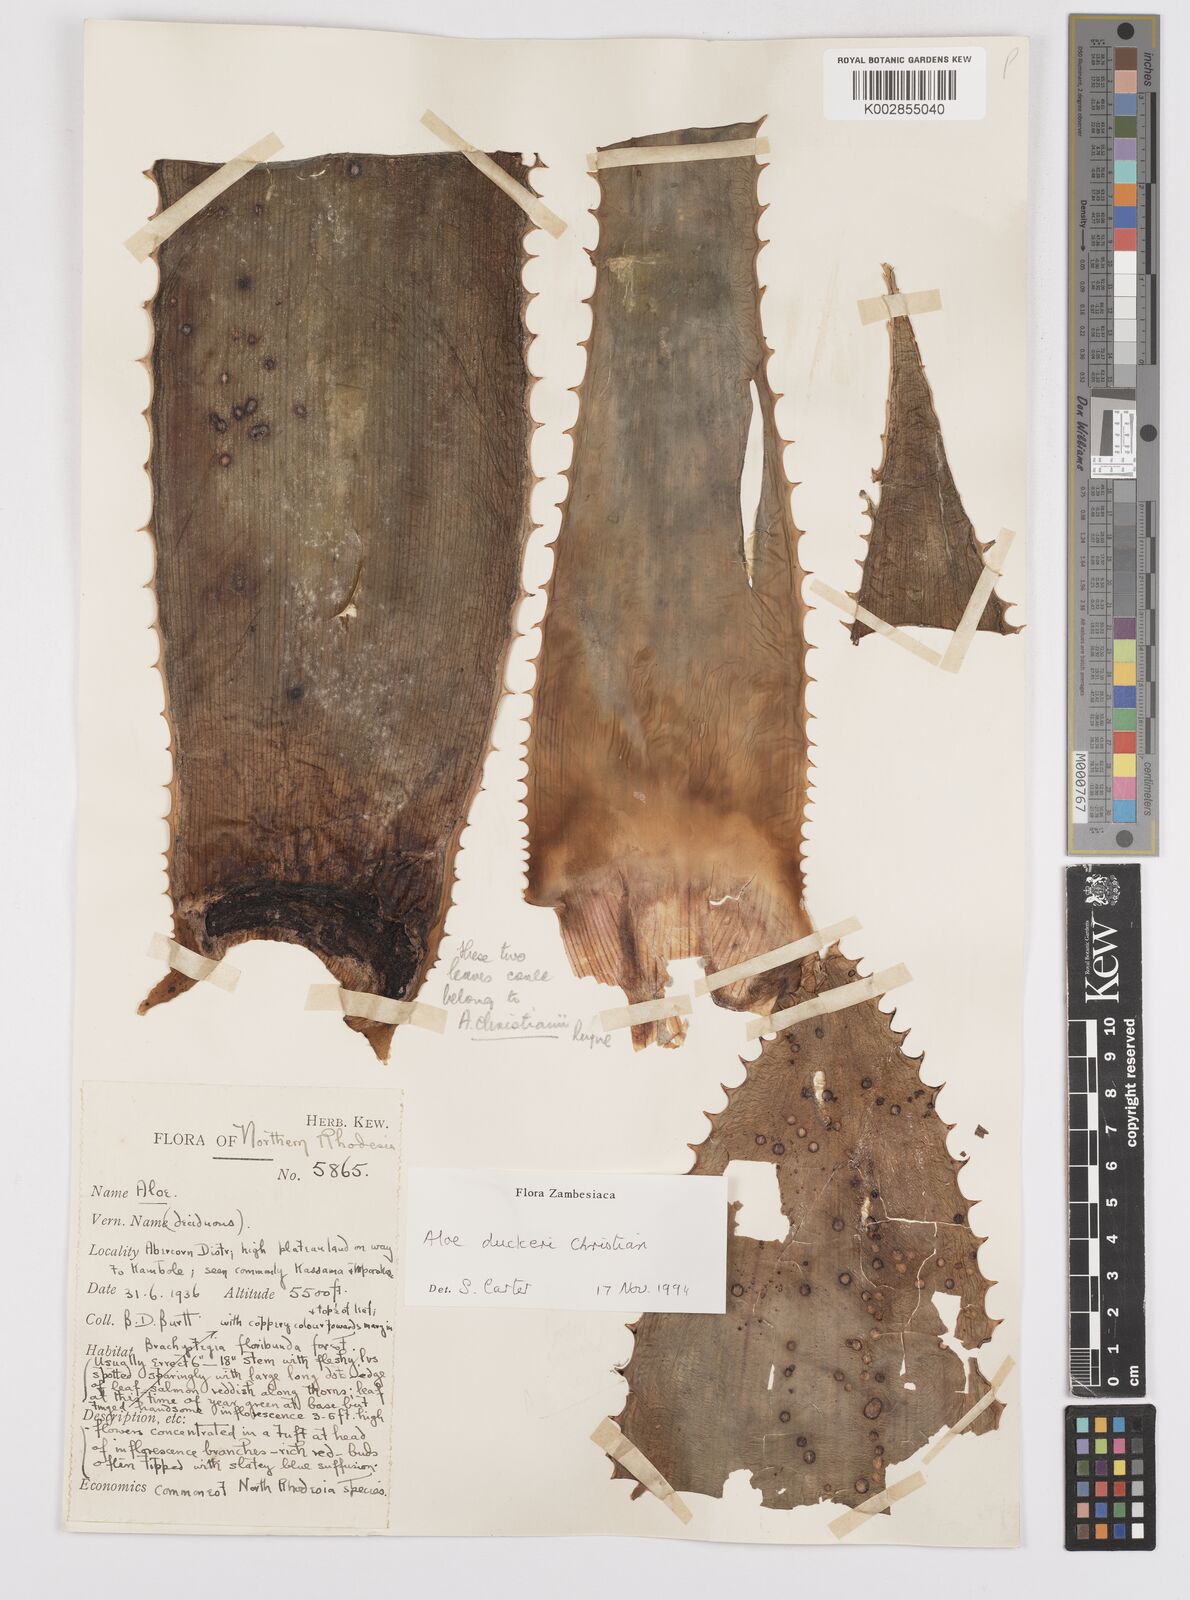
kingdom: Plantae
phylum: Tracheophyta
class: Liliopsida
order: Asparagales
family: Asphodelaceae
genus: Aloe
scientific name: Aloe duckeri
